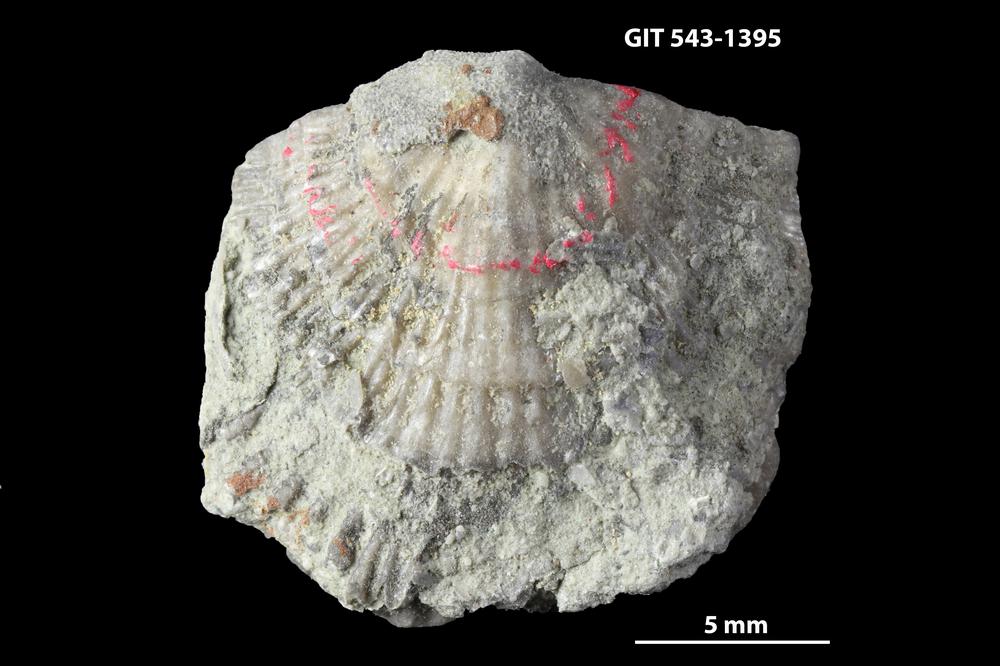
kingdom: Animalia
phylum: Brachiopoda
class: Rhynchonellata
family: Clitambonitidae
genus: Clitambonites
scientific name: Clitambonites Orthisina schmidti
